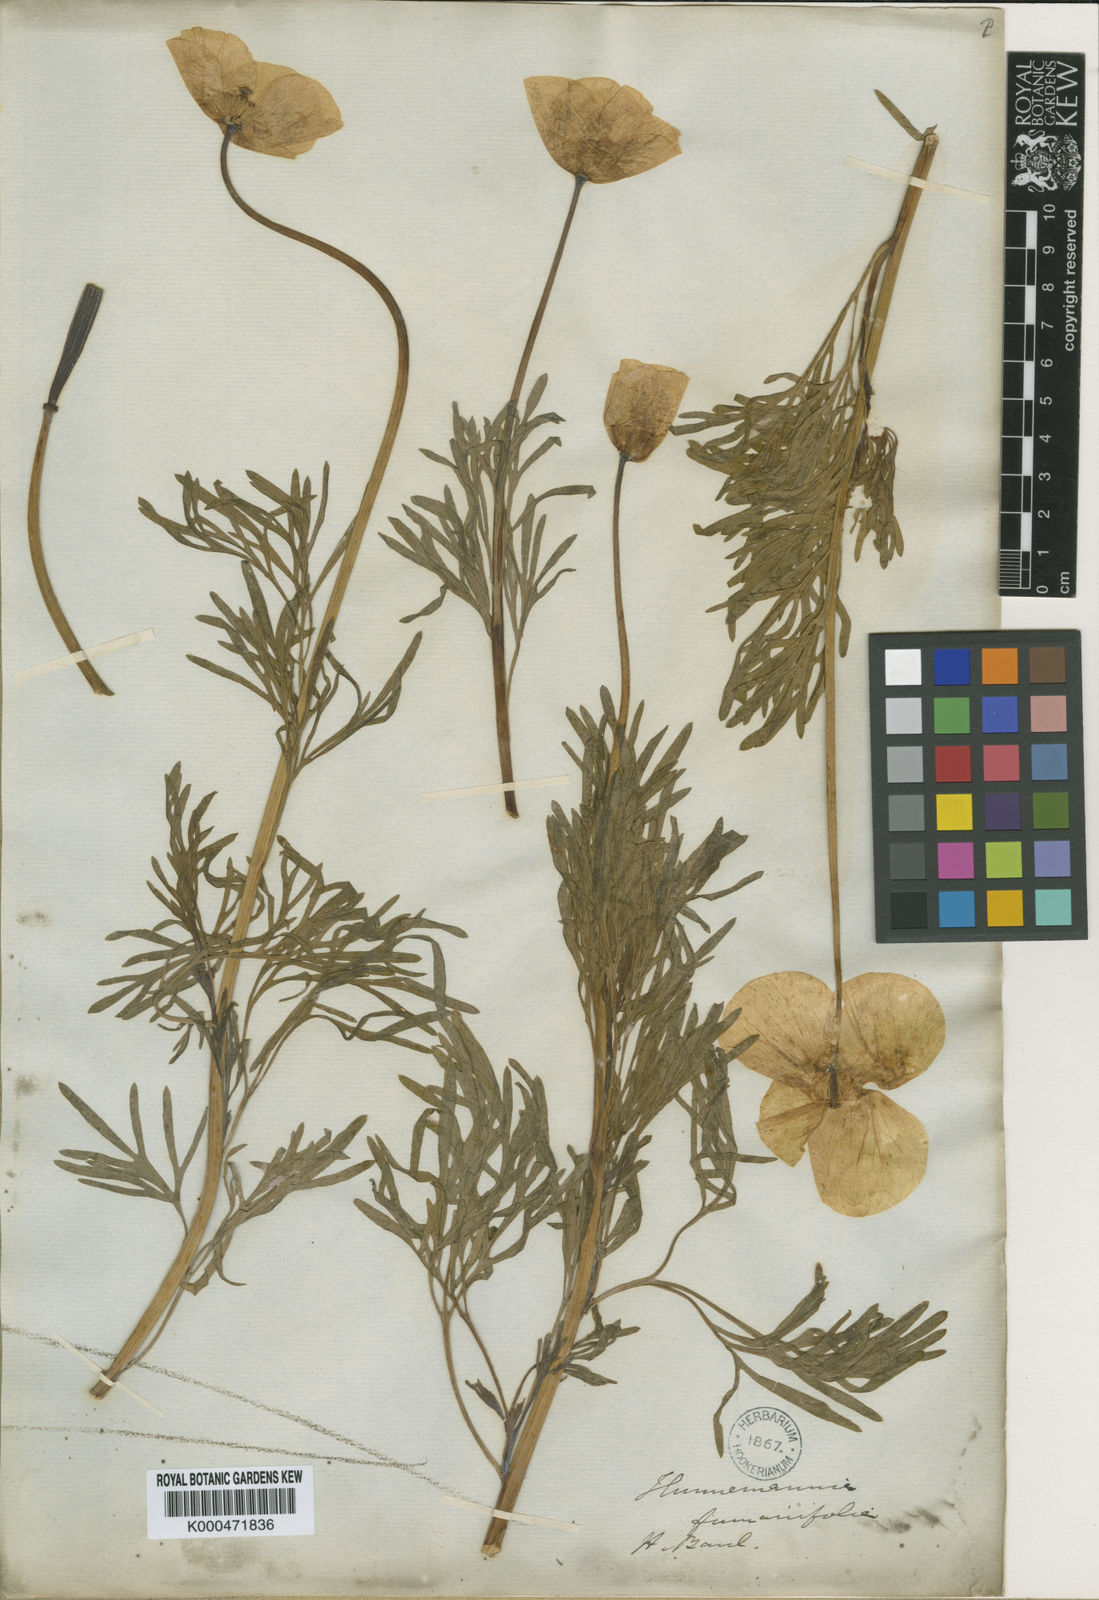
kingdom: Plantae
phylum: Tracheophyta
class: Magnoliopsida
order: Ranunculales
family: Papaveraceae
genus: Hunnemannia
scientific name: Hunnemannia fumariifolia
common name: Mexican tulip poppy
